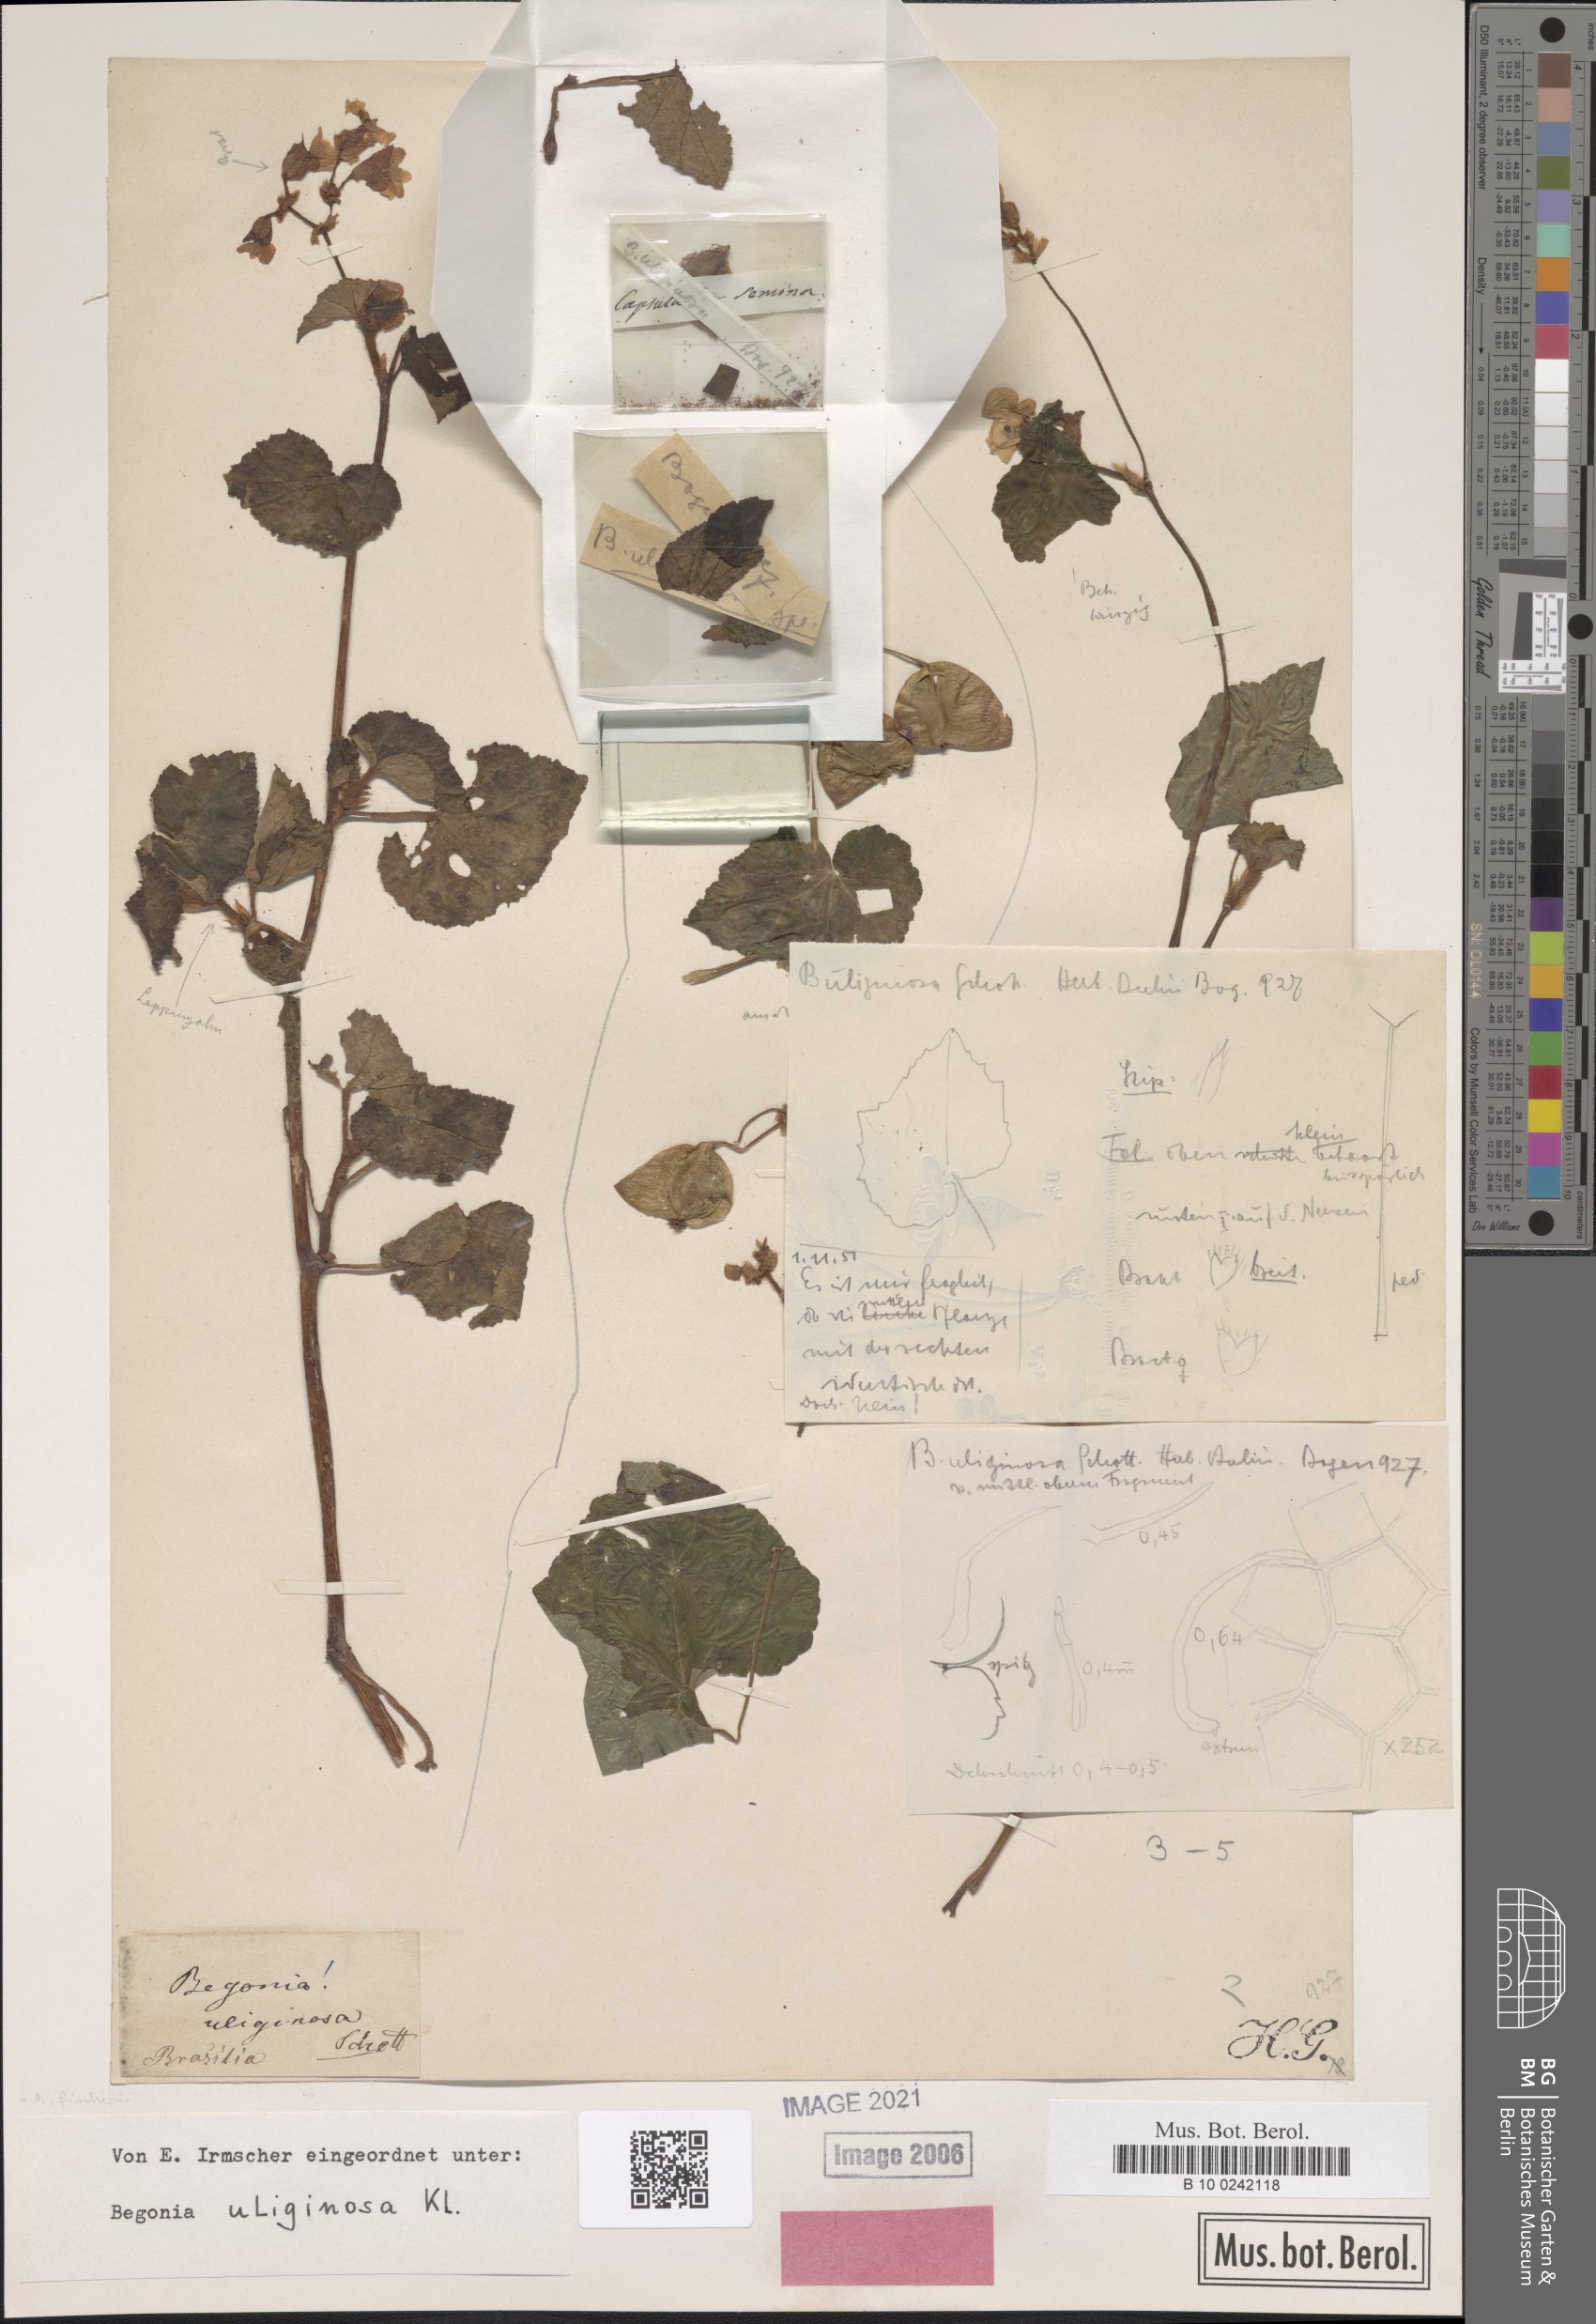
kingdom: Plantae
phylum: Tracheophyta
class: Magnoliopsida
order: Cucurbitales
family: Begoniaceae
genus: Begonia
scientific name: Begonia fischeri
